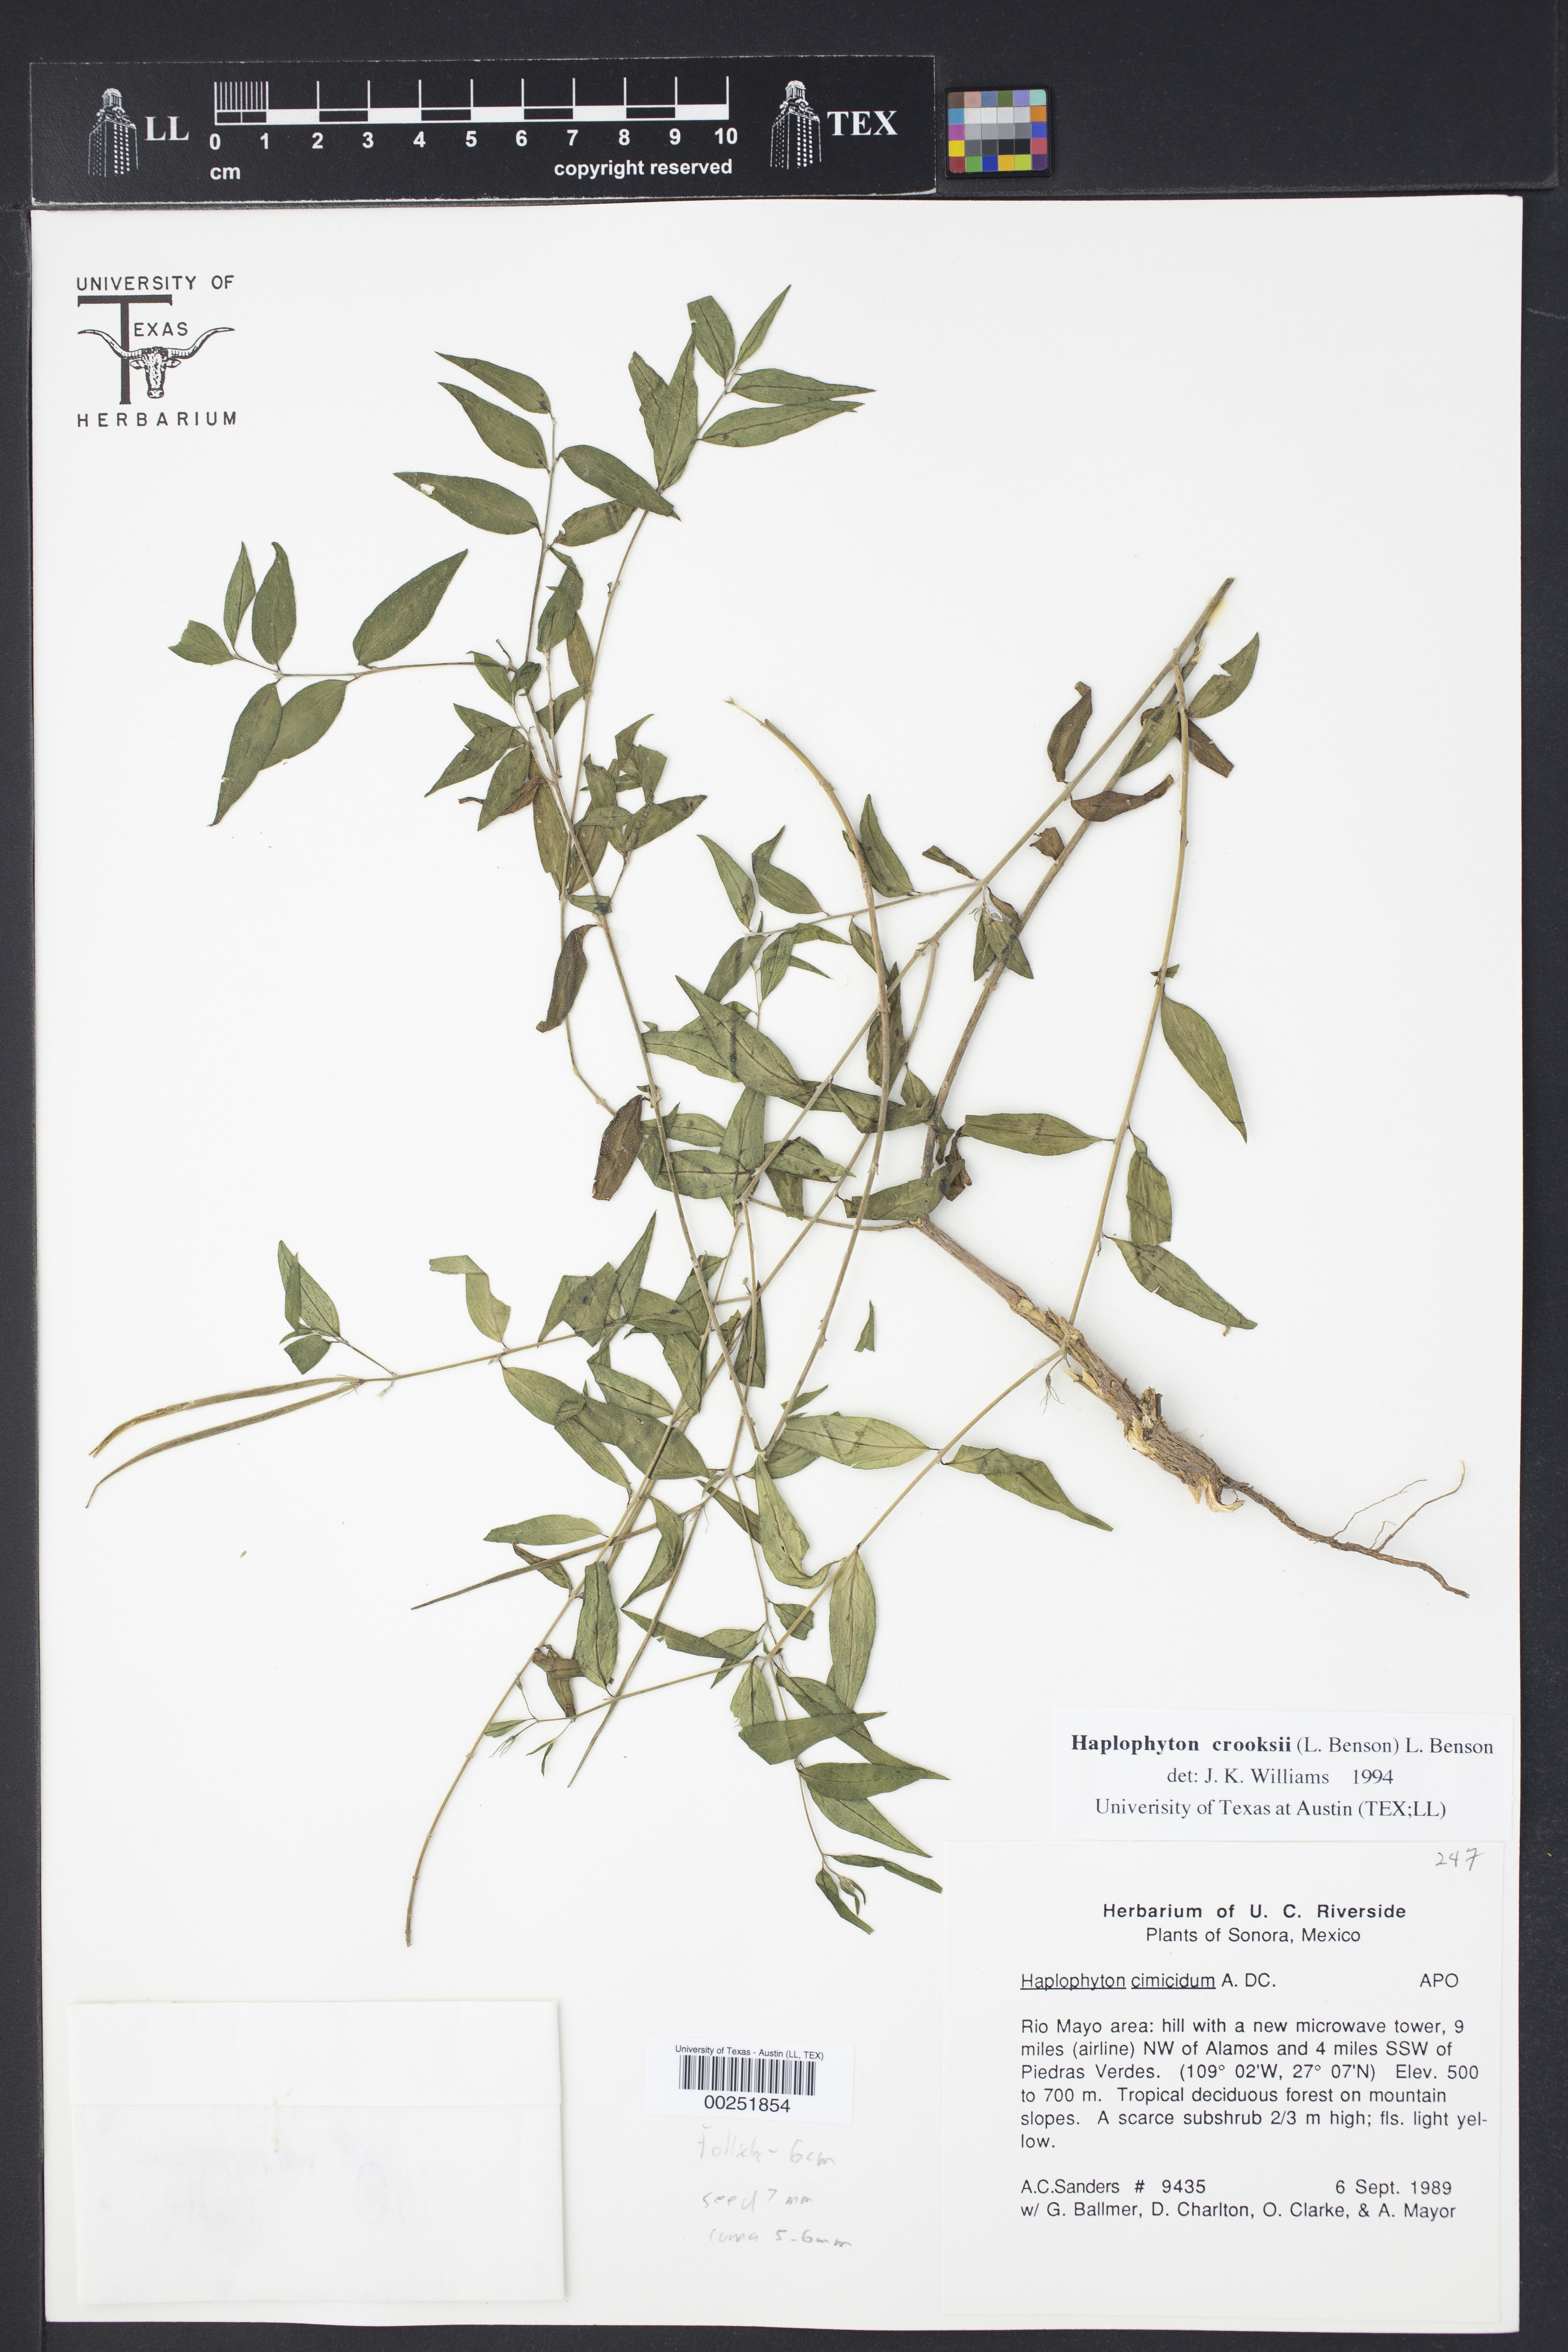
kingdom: Plantae
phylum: Tracheophyta
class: Magnoliopsida
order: Gentianales
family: Apocynaceae
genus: Haplophyton
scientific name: Haplophyton crooksii
